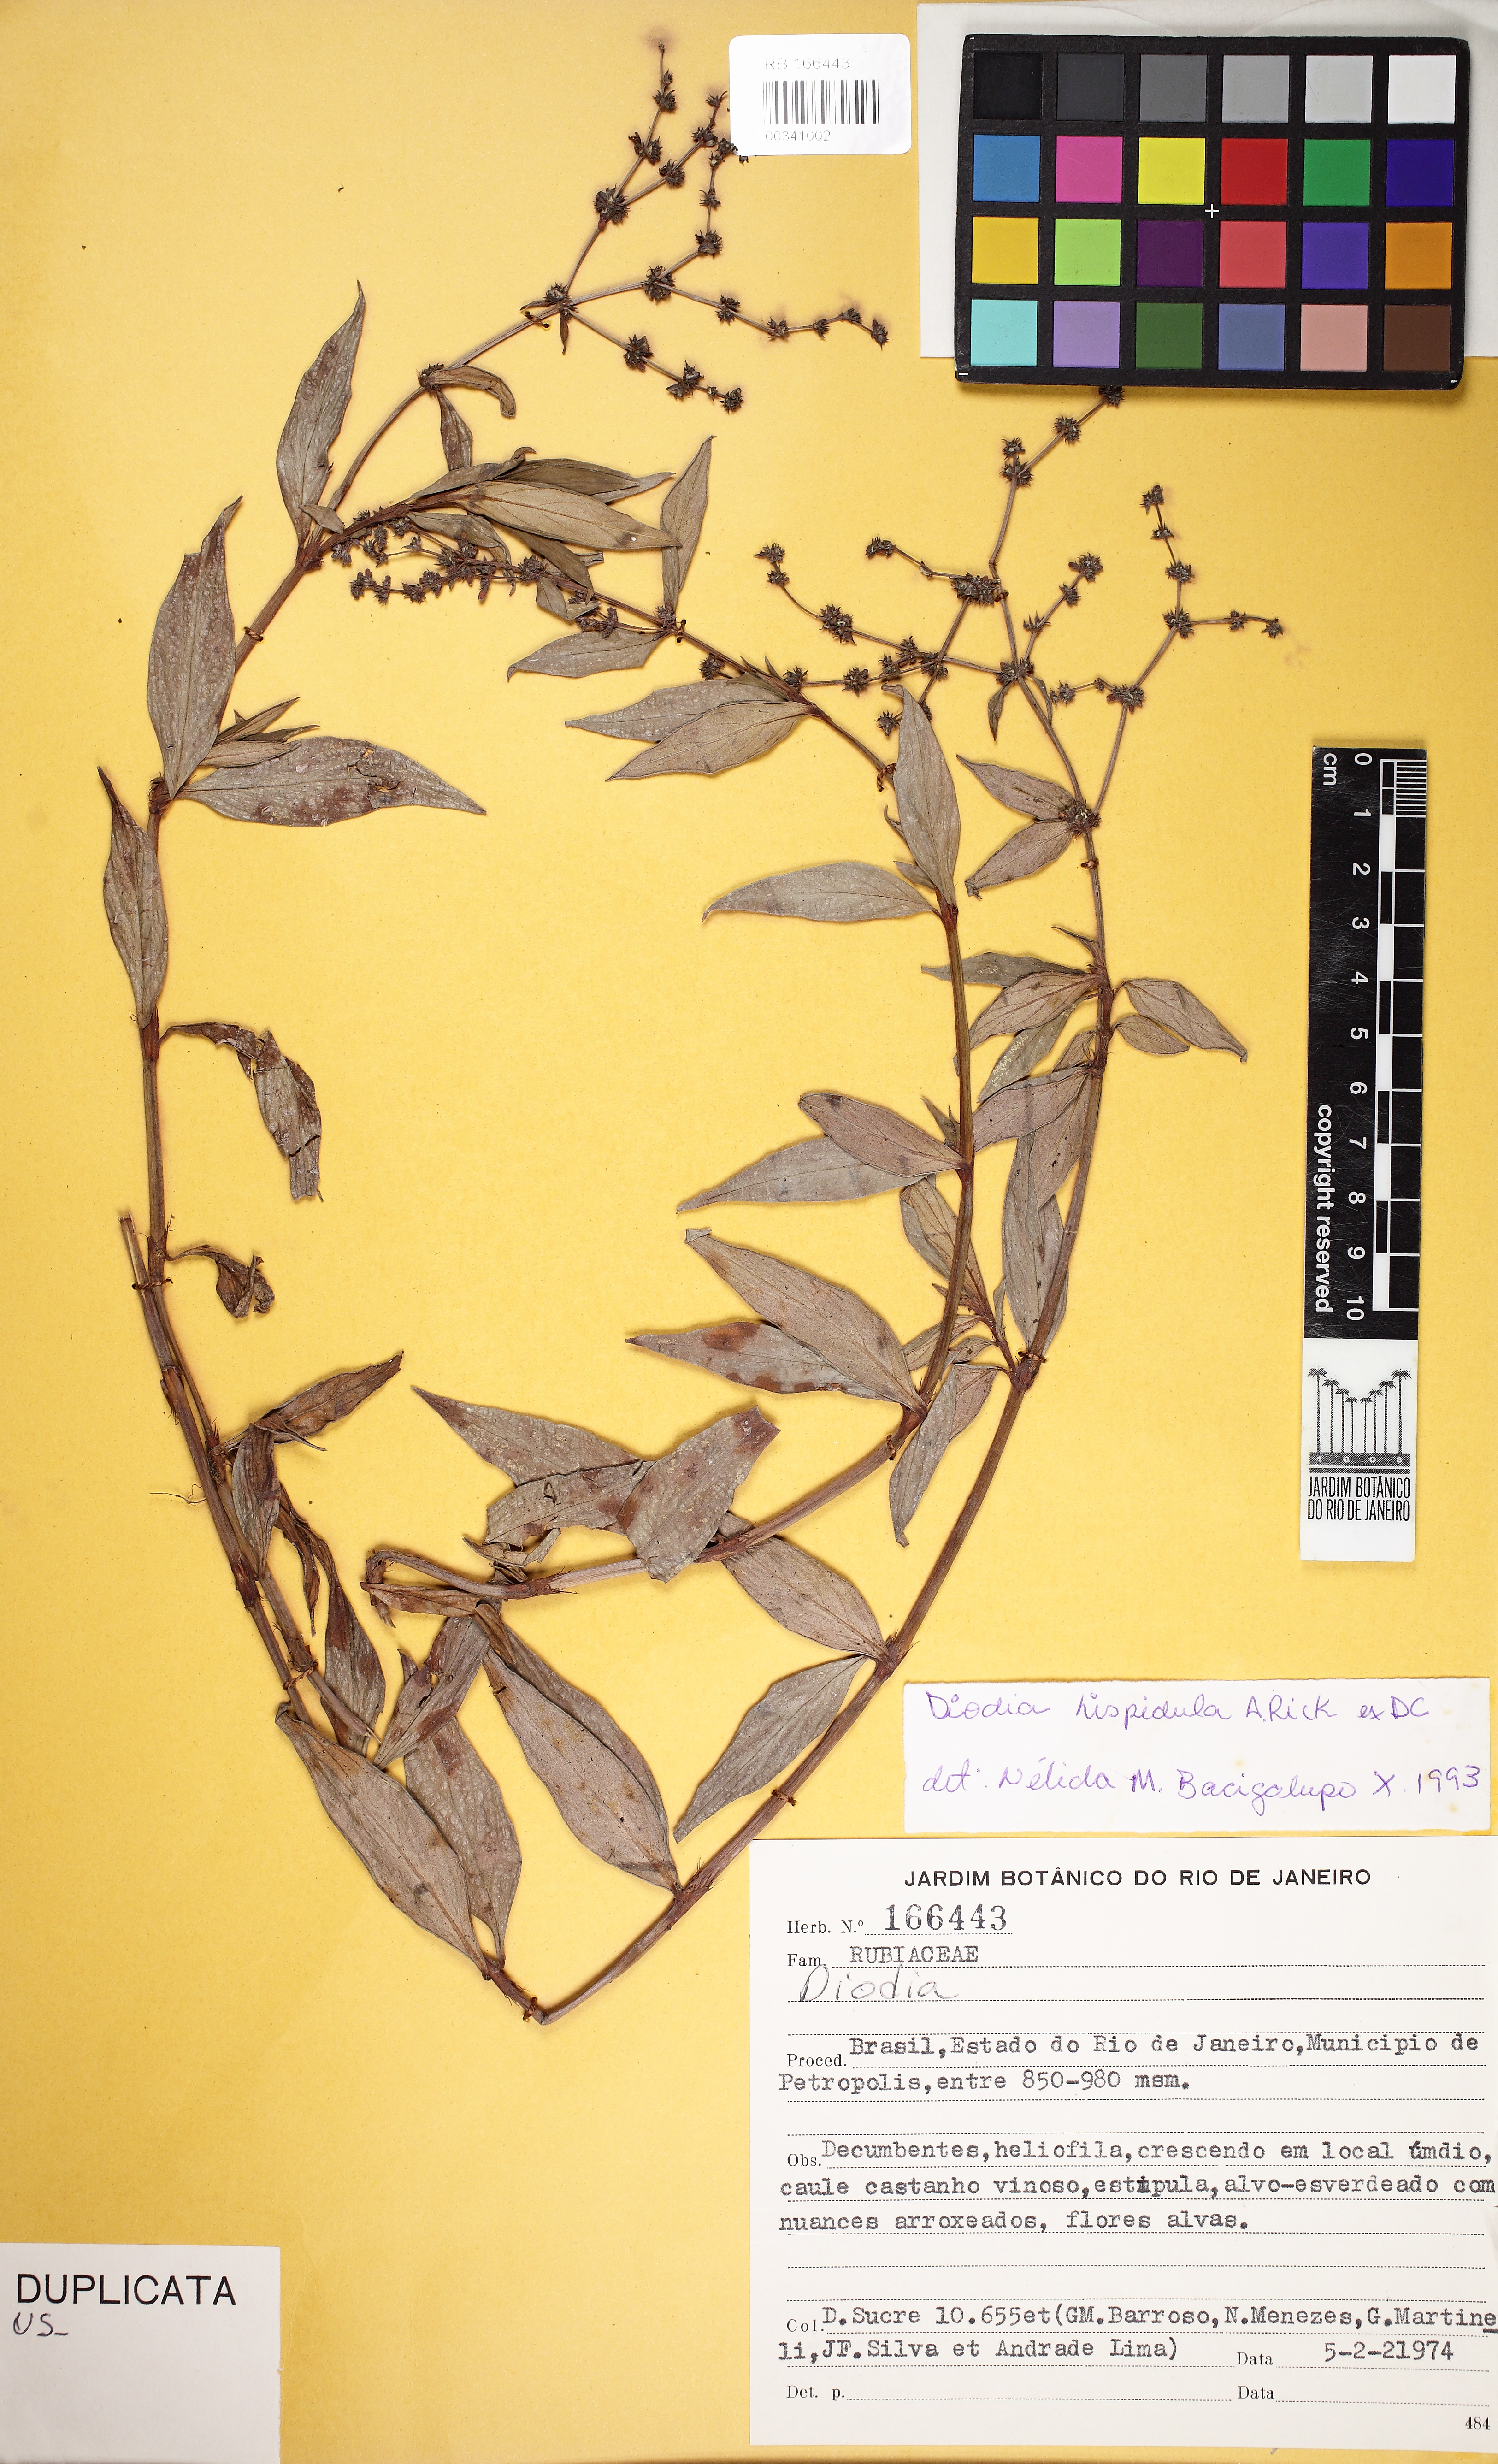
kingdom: Plantae
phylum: Tracheophyta
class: Magnoliopsida
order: Gentianales
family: Rubiaceae
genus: Galianthe
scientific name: Galianthe hispidula
